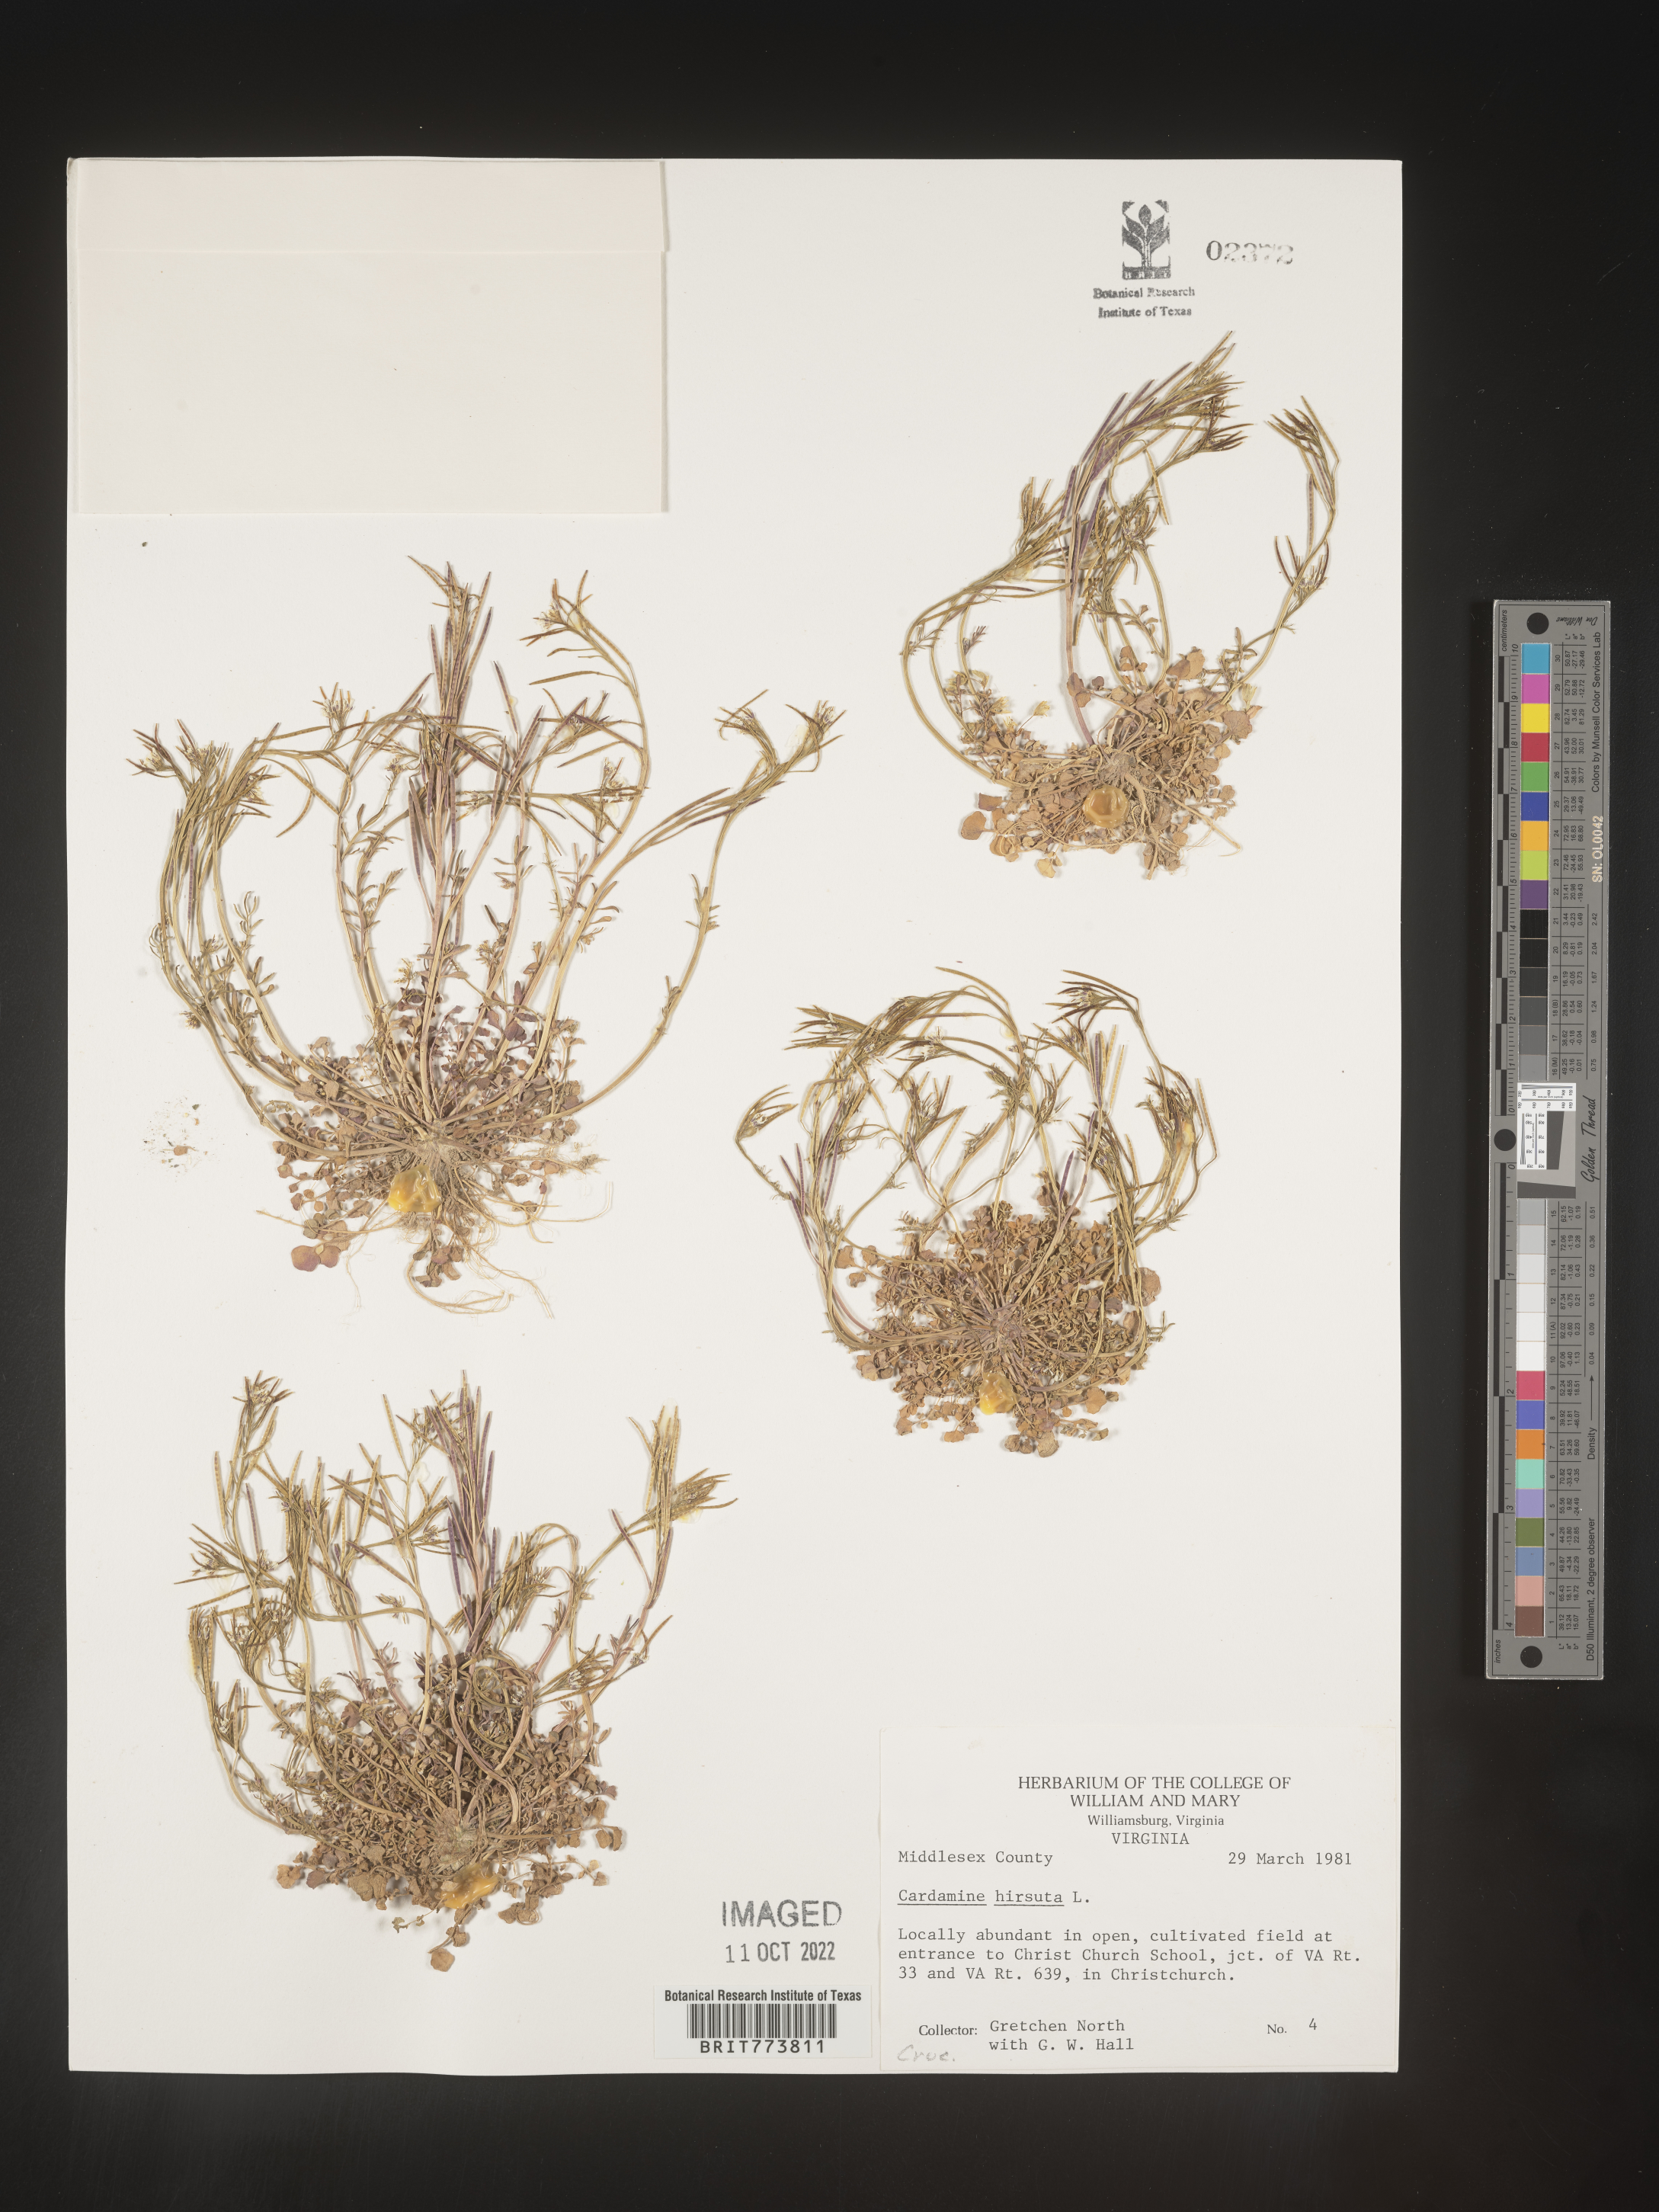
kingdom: Plantae
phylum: Tracheophyta
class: Magnoliopsida
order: Brassicales
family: Brassicaceae
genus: Cardamine
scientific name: Cardamine hirsuta
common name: Hairy bittercress
